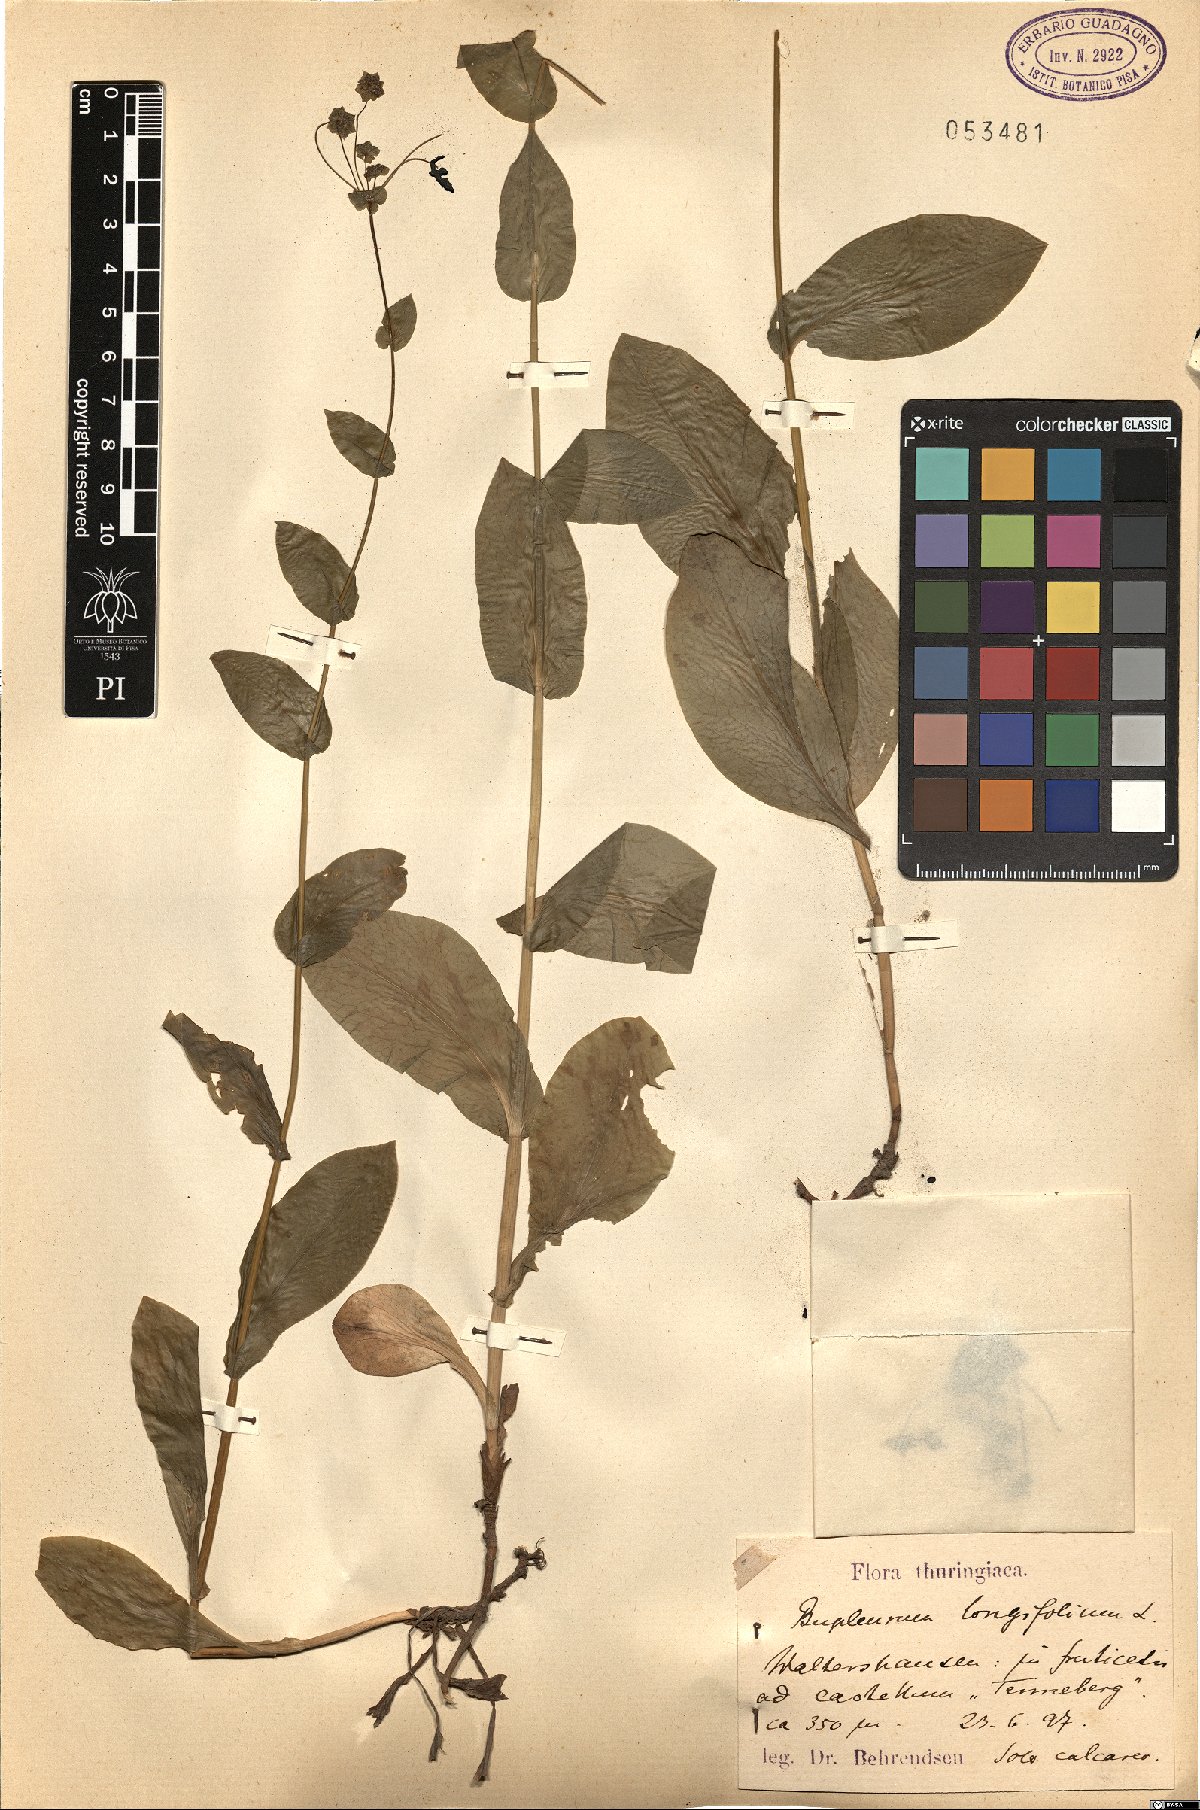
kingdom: Plantae
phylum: Tracheophyta
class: Magnoliopsida
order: Apiales
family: Apiaceae
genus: Bupleurum
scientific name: Bupleurum longifolium
